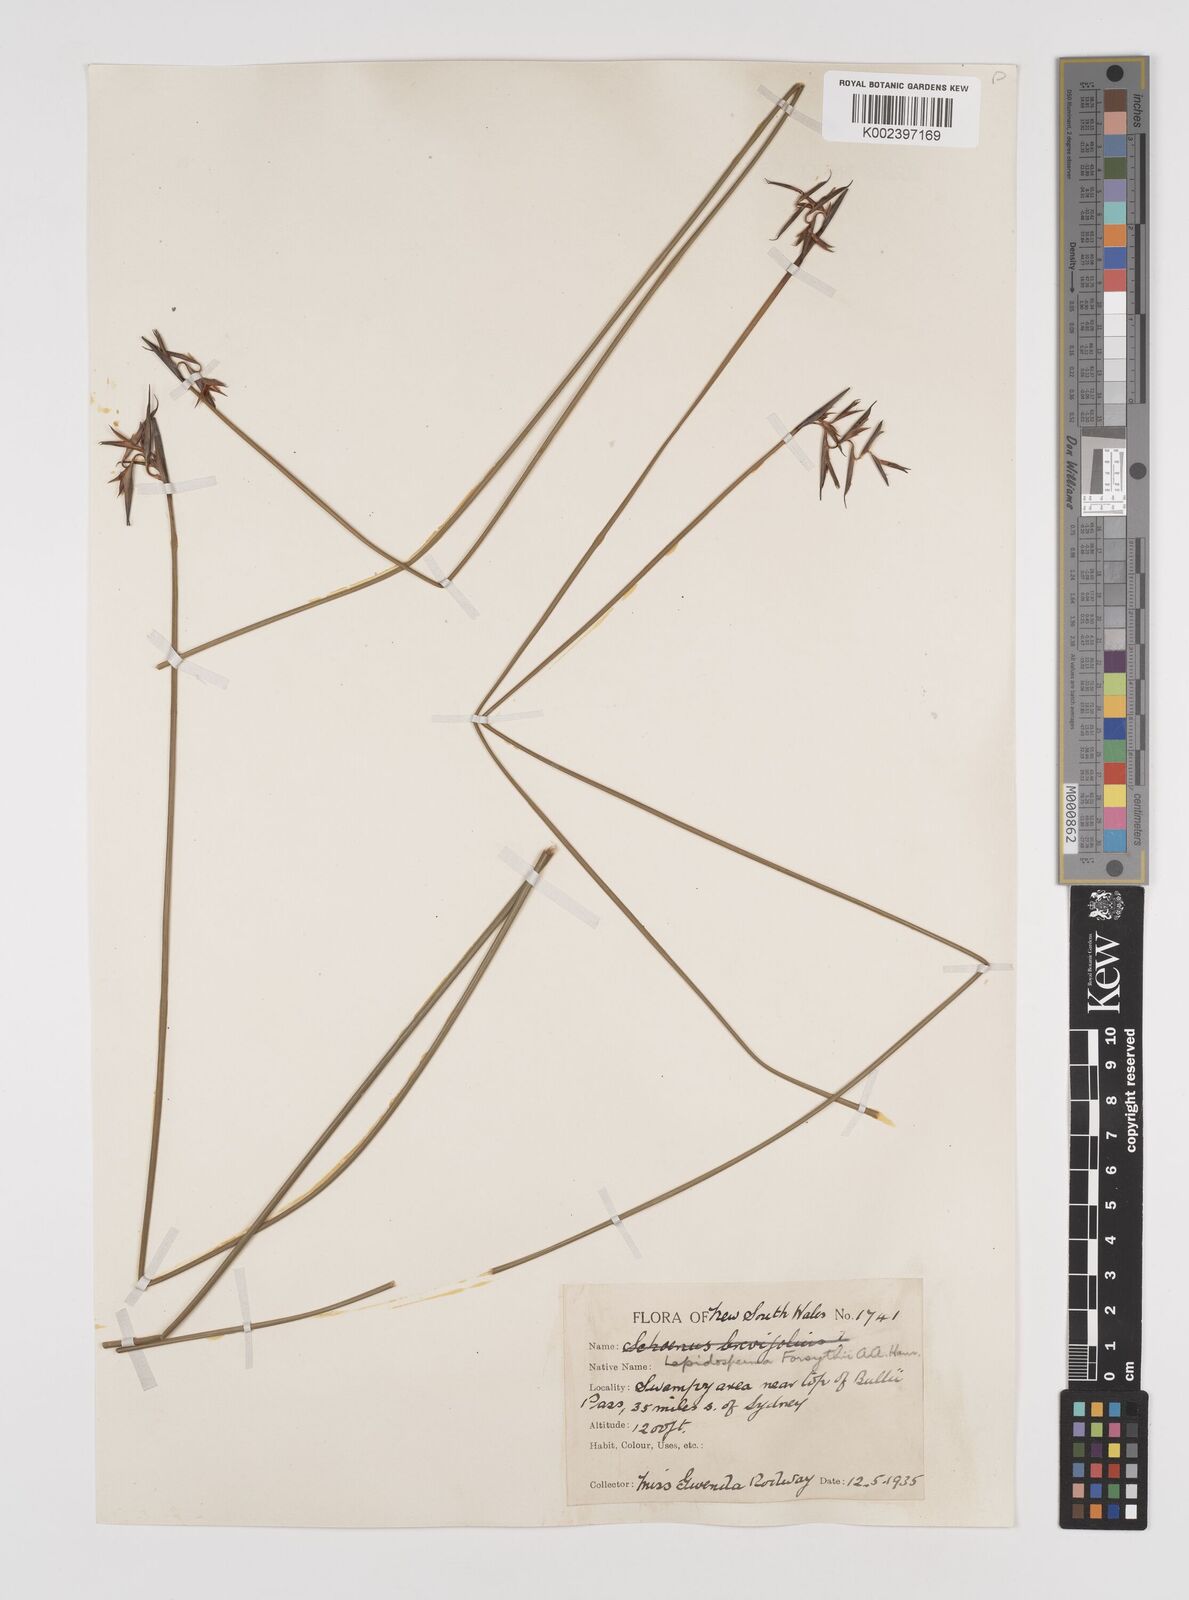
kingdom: Plantae
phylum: Tracheophyta
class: Liliopsida
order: Poales
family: Cyperaceae
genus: Lepidosperma
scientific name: Lepidosperma forsythii
